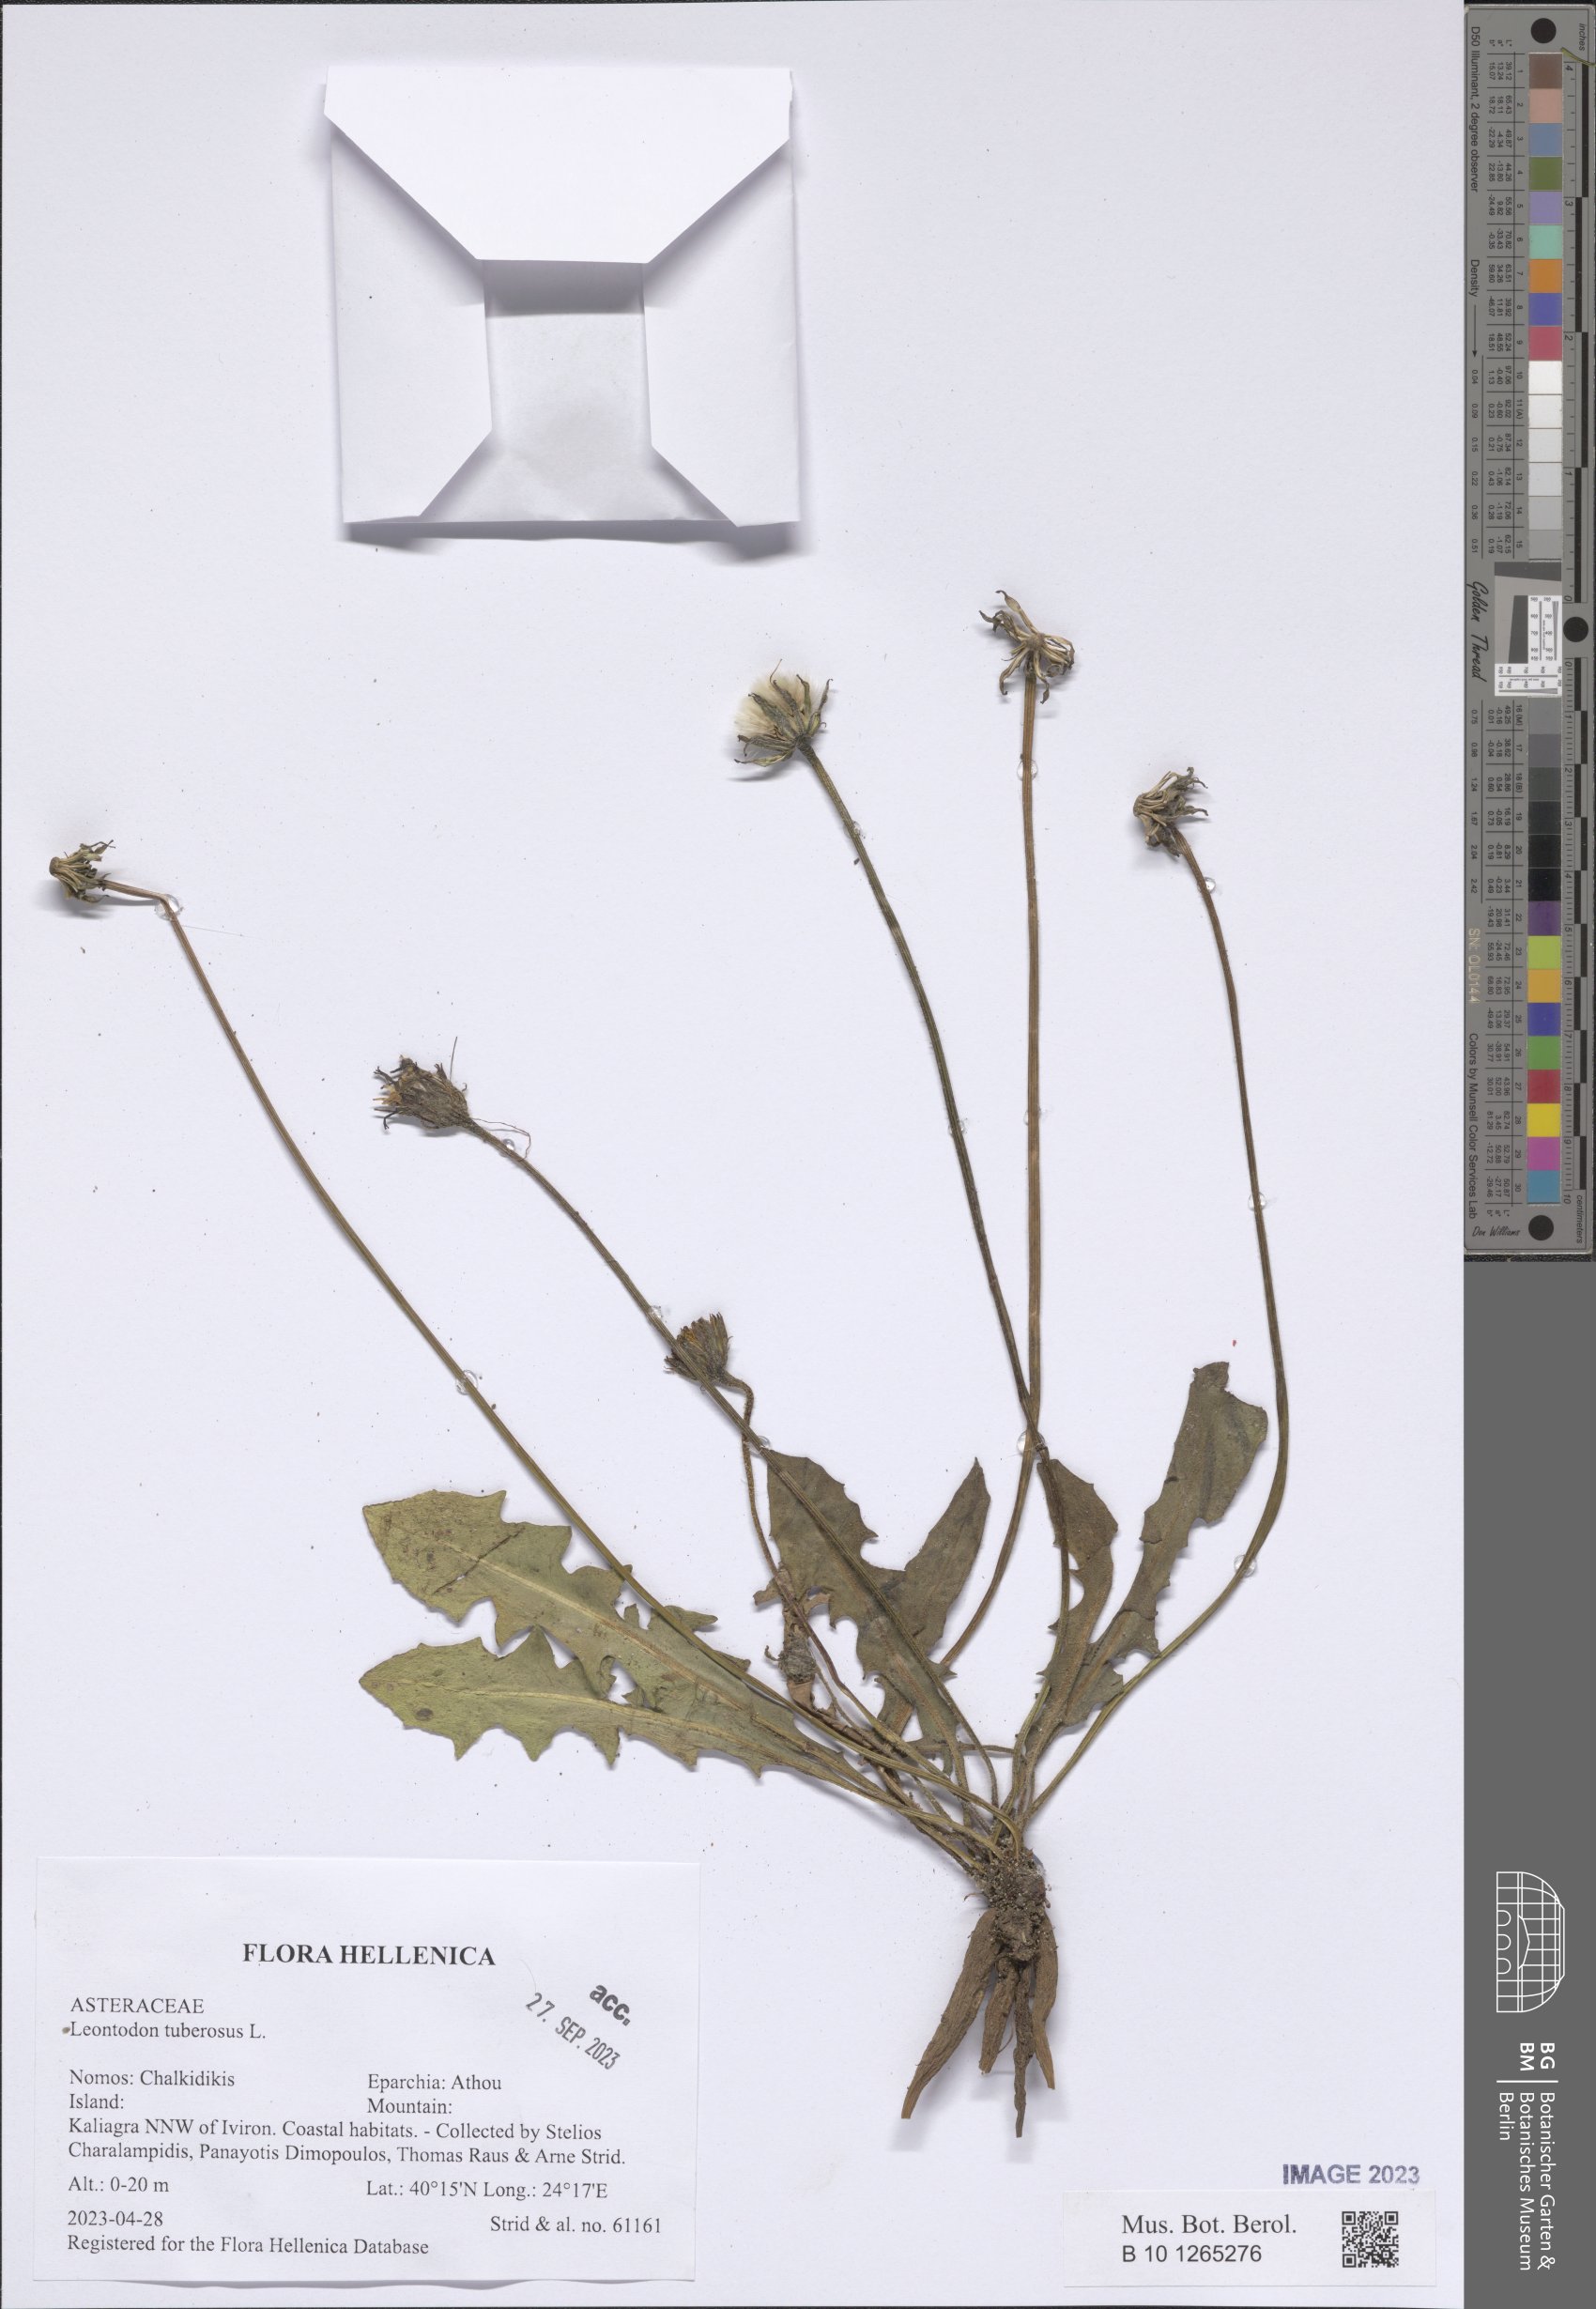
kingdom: Plantae
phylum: Tracheophyta
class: Magnoliopsida
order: Asterales
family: Asteraceae
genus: Thrincia
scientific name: Thrincia tuberosa
